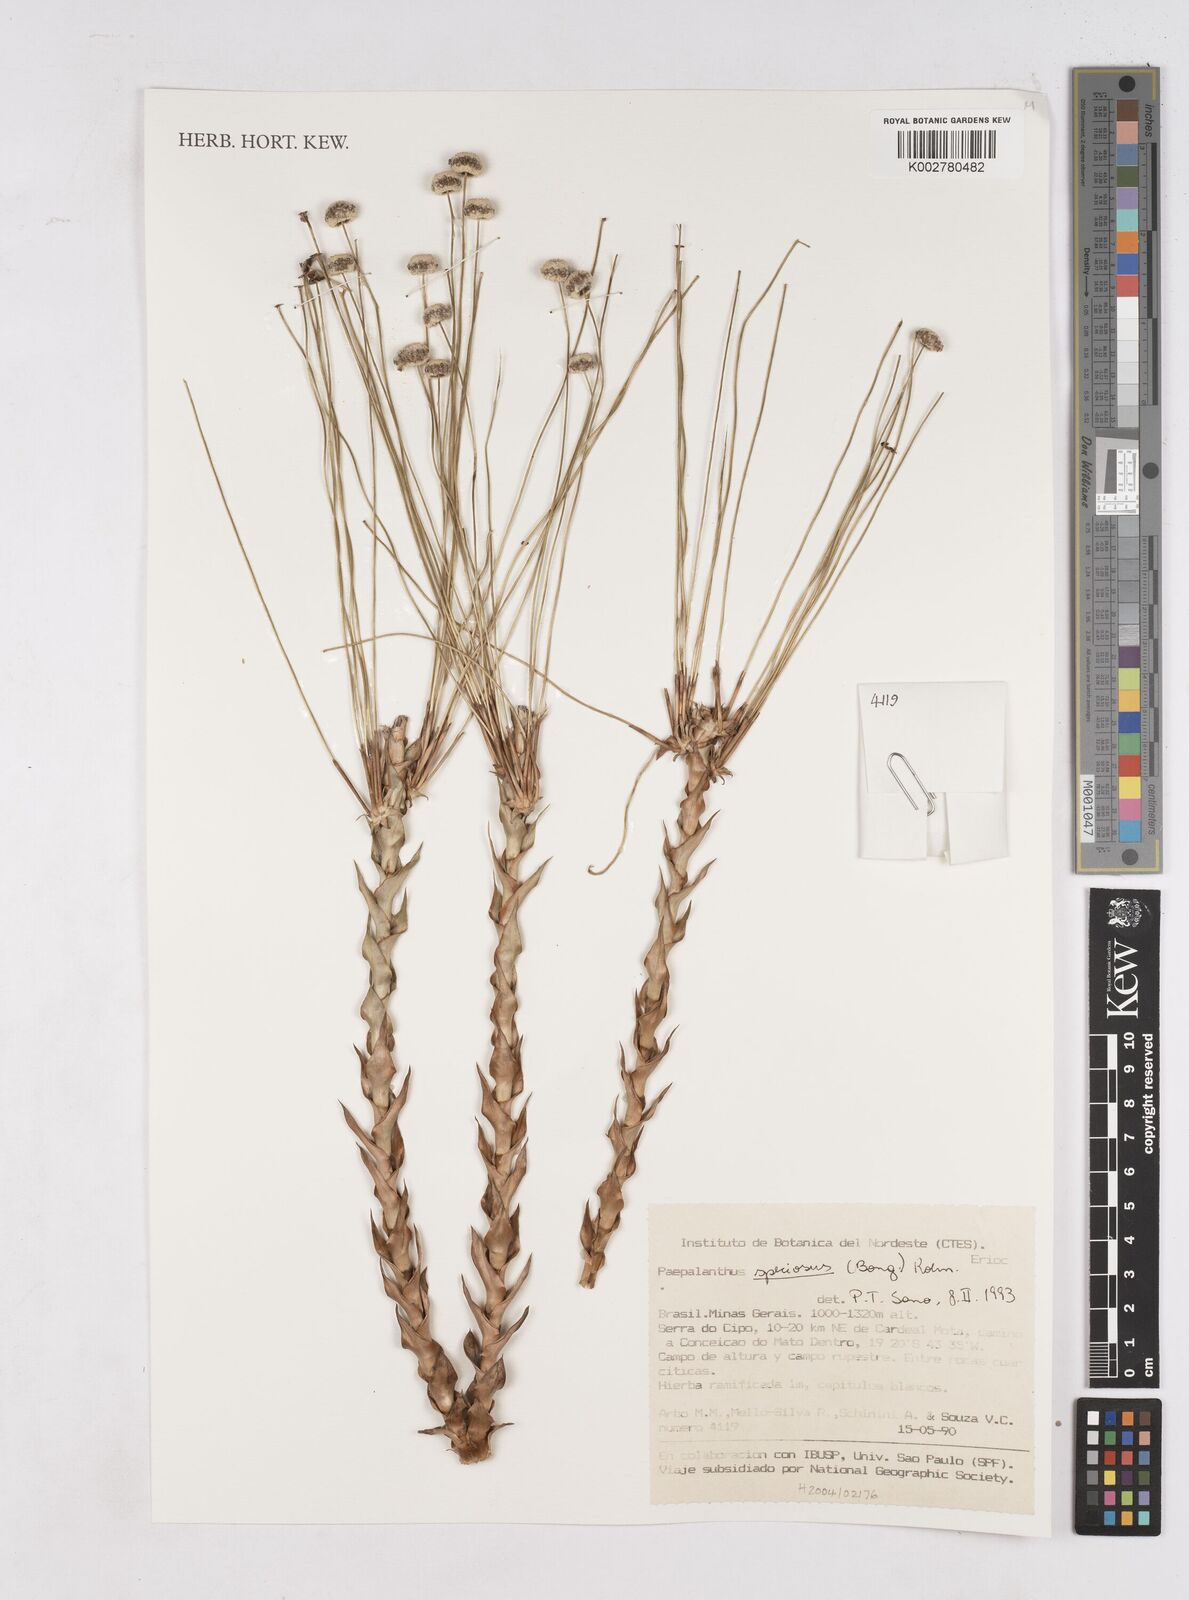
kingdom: Plantae
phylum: Tracheophyta
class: Liliopsida
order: Poales
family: Eriocaulaceae
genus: Paepalanthus
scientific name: Paepalanthus chiquitensis
